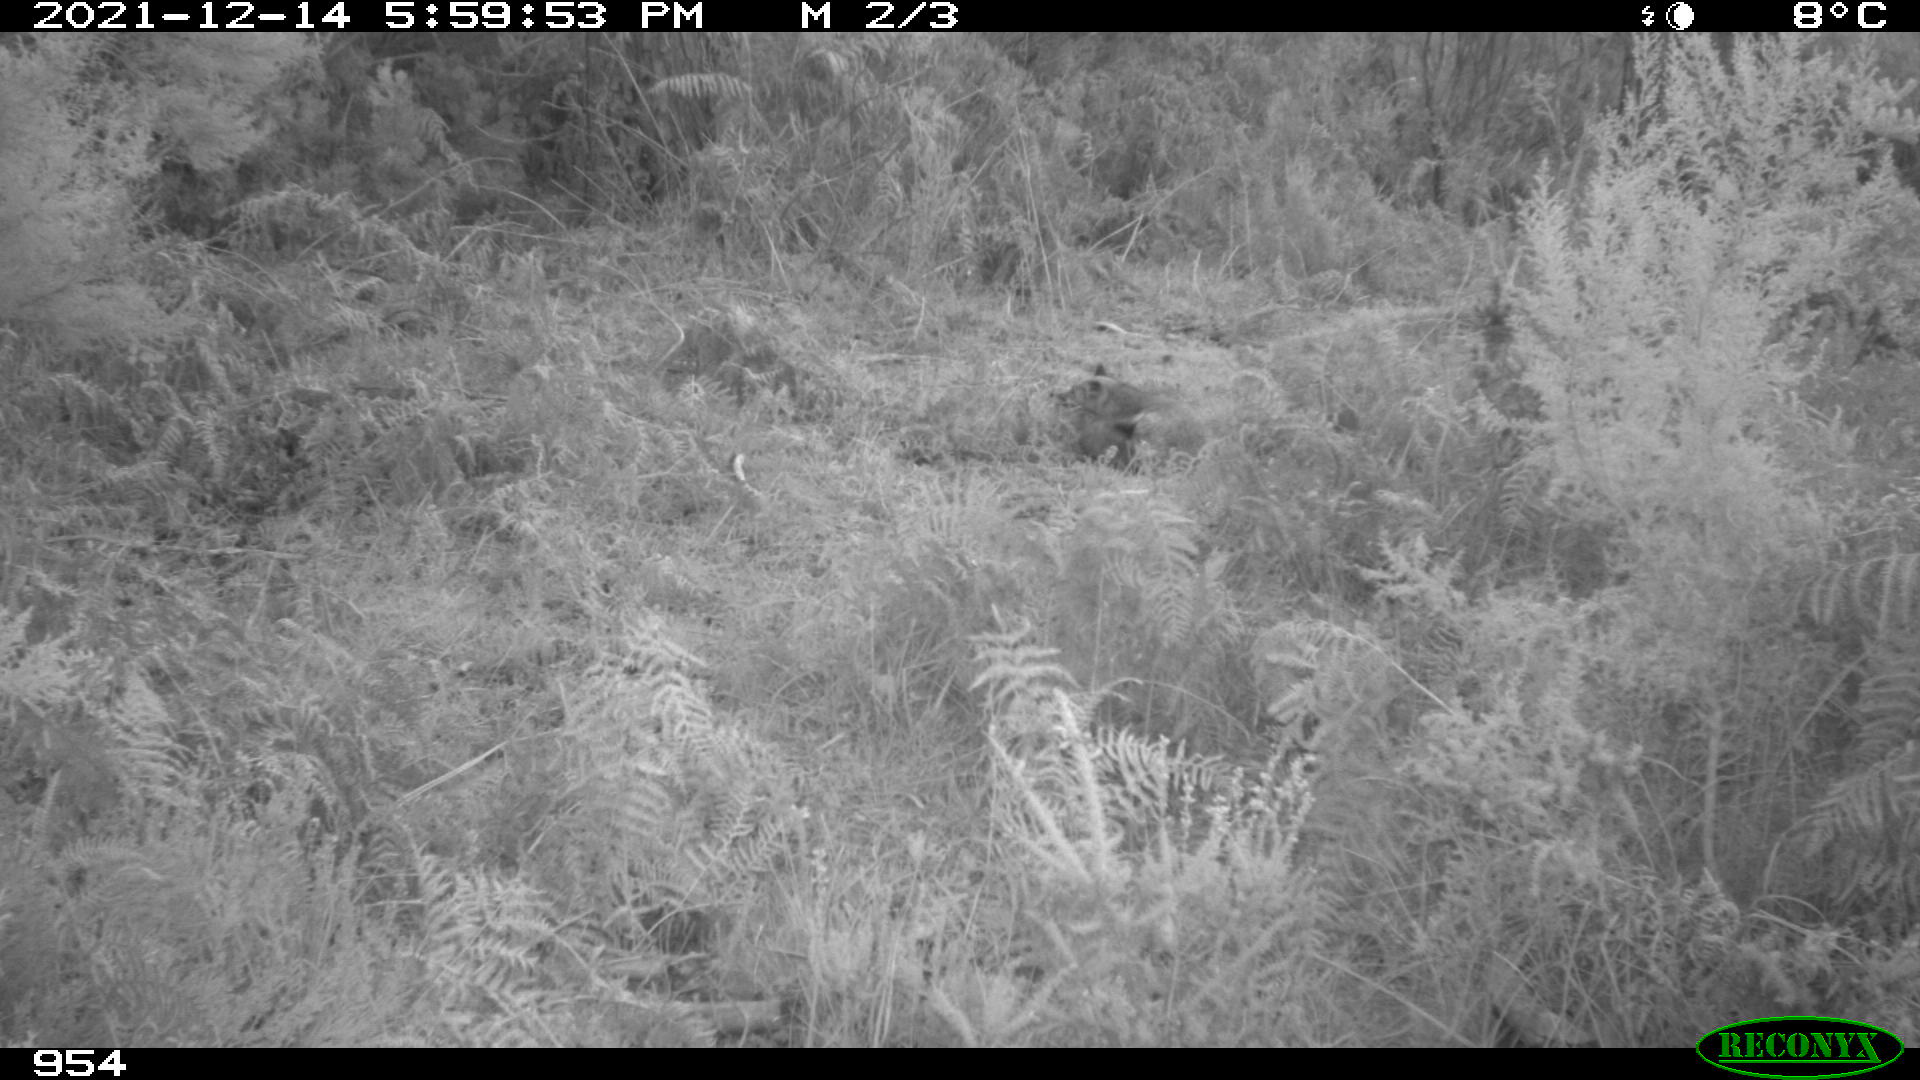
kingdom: Animalia
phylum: Chordata
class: Mammalia
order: Carnivora
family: Canidae
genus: Vulpes
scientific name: Vulpes vulpes
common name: Red fox
